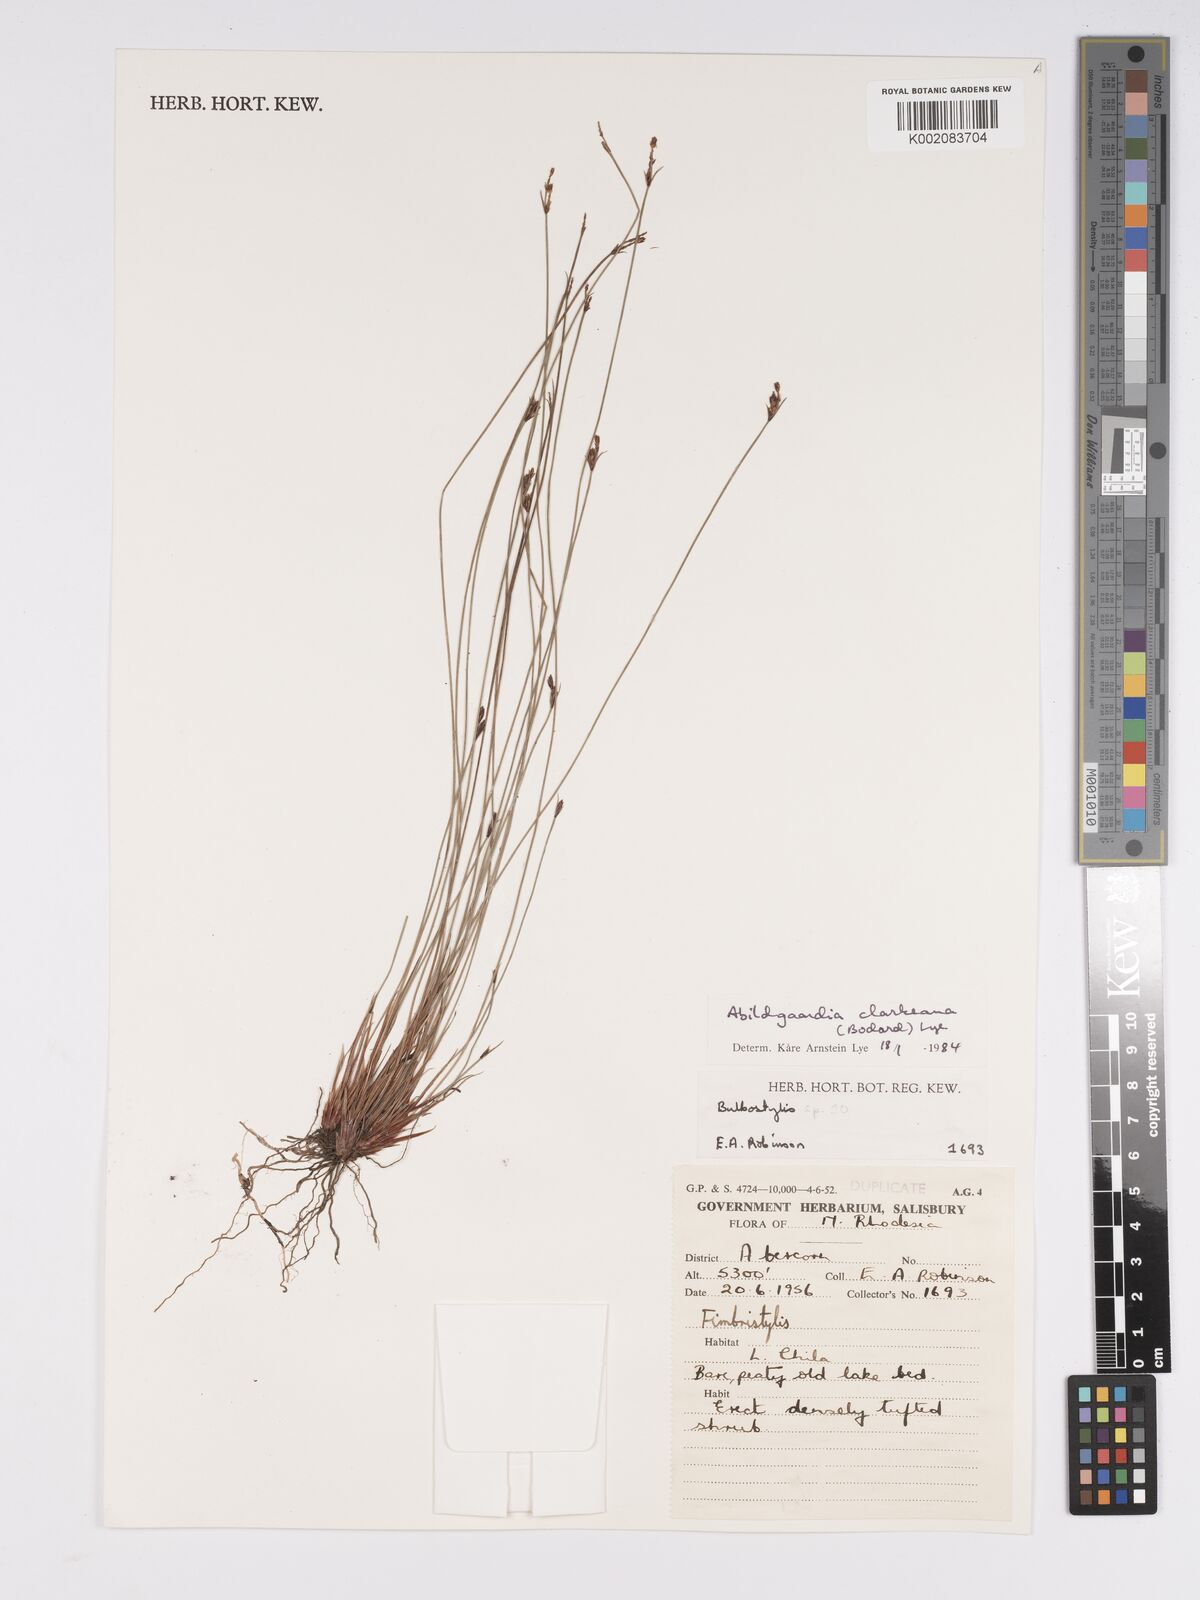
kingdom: Plantae
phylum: Tracheophyta
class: Liliopsida
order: Poales
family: Cyperaceae
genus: Bulbostylis
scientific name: Bulbostylis oritrephes
